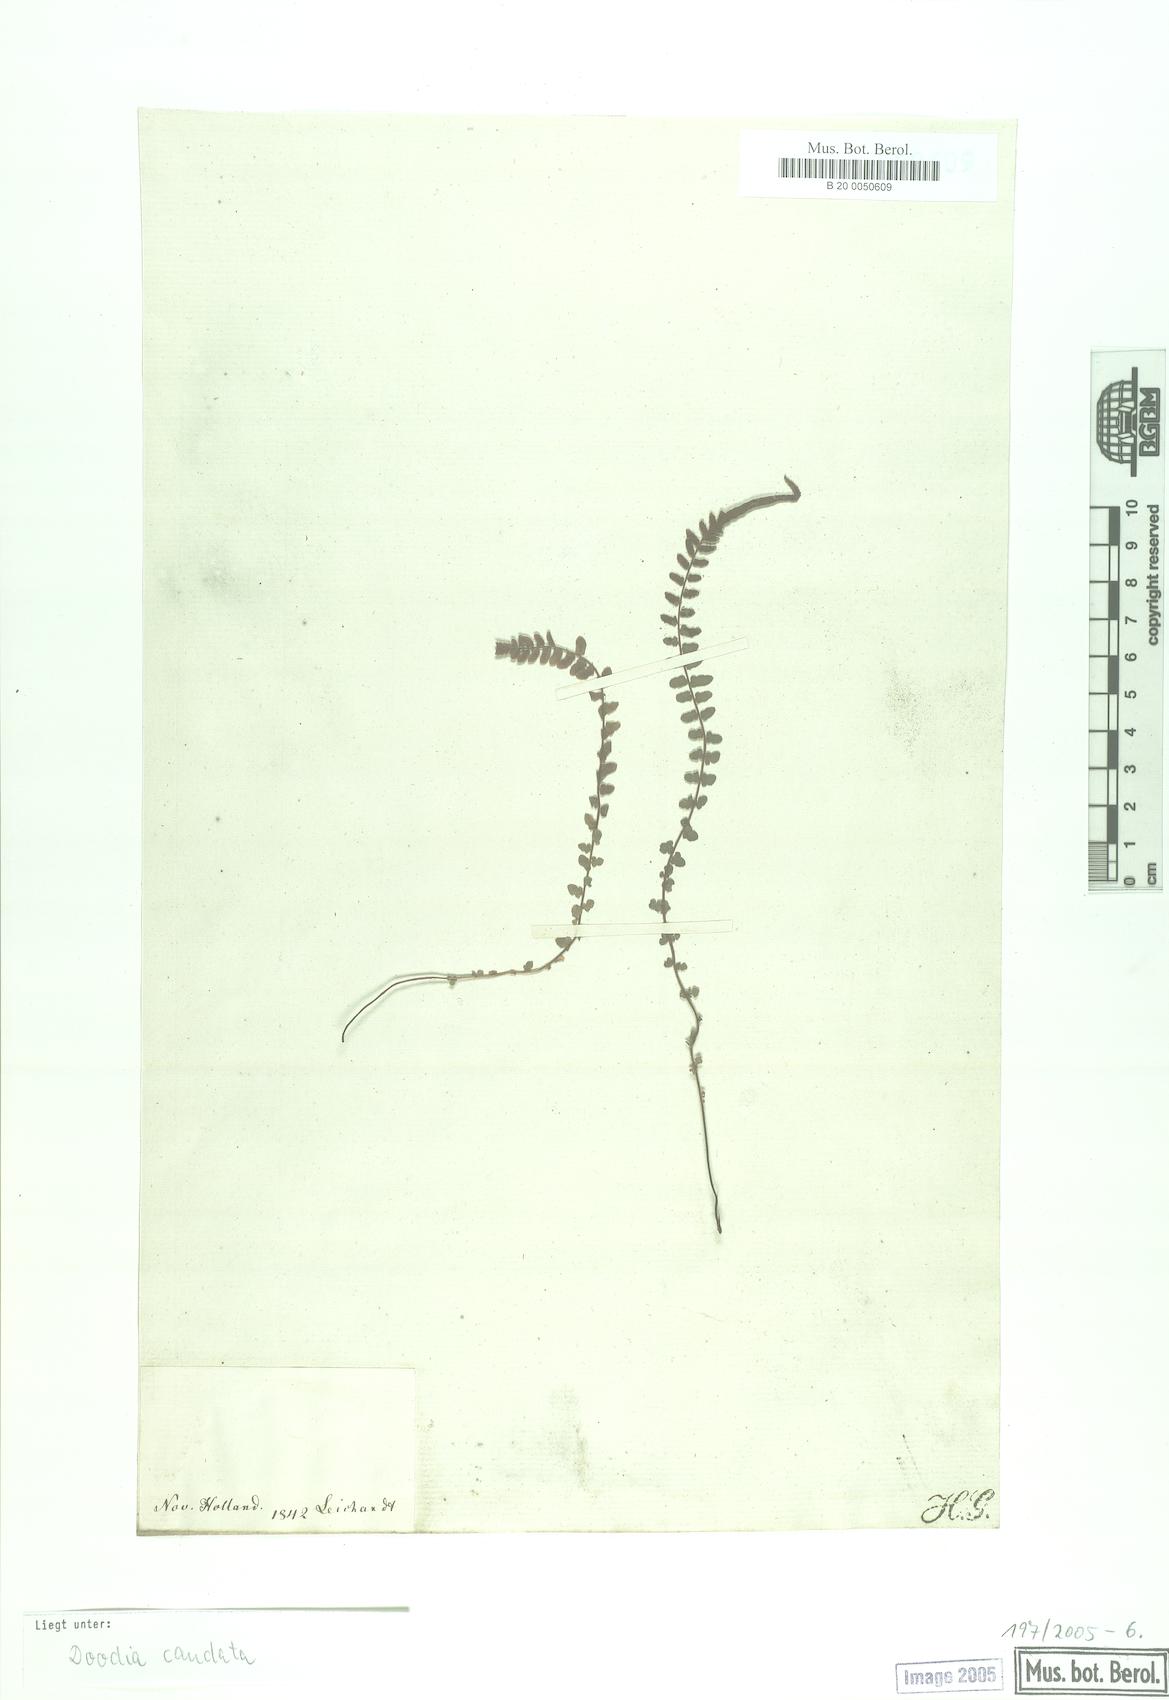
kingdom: Plantae
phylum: Tracheophyta
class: Polypodiopsida
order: Polypodiales
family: Blechnaceae
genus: Doodia
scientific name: Doodia caudata
